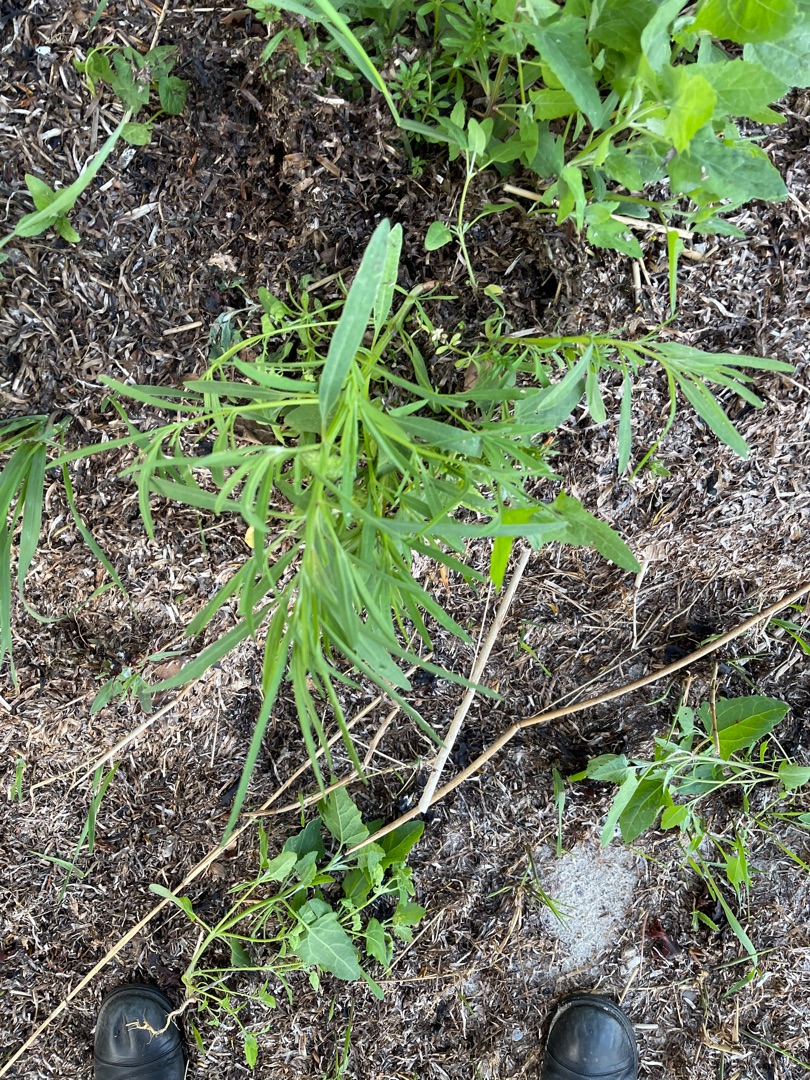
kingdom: Plantae
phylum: Tracheophyta
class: Magnoliopsida
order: Caryophyllales
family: Amaranthaceae
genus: Atriplex
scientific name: Atriplex littoralis
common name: Strand-mælde
